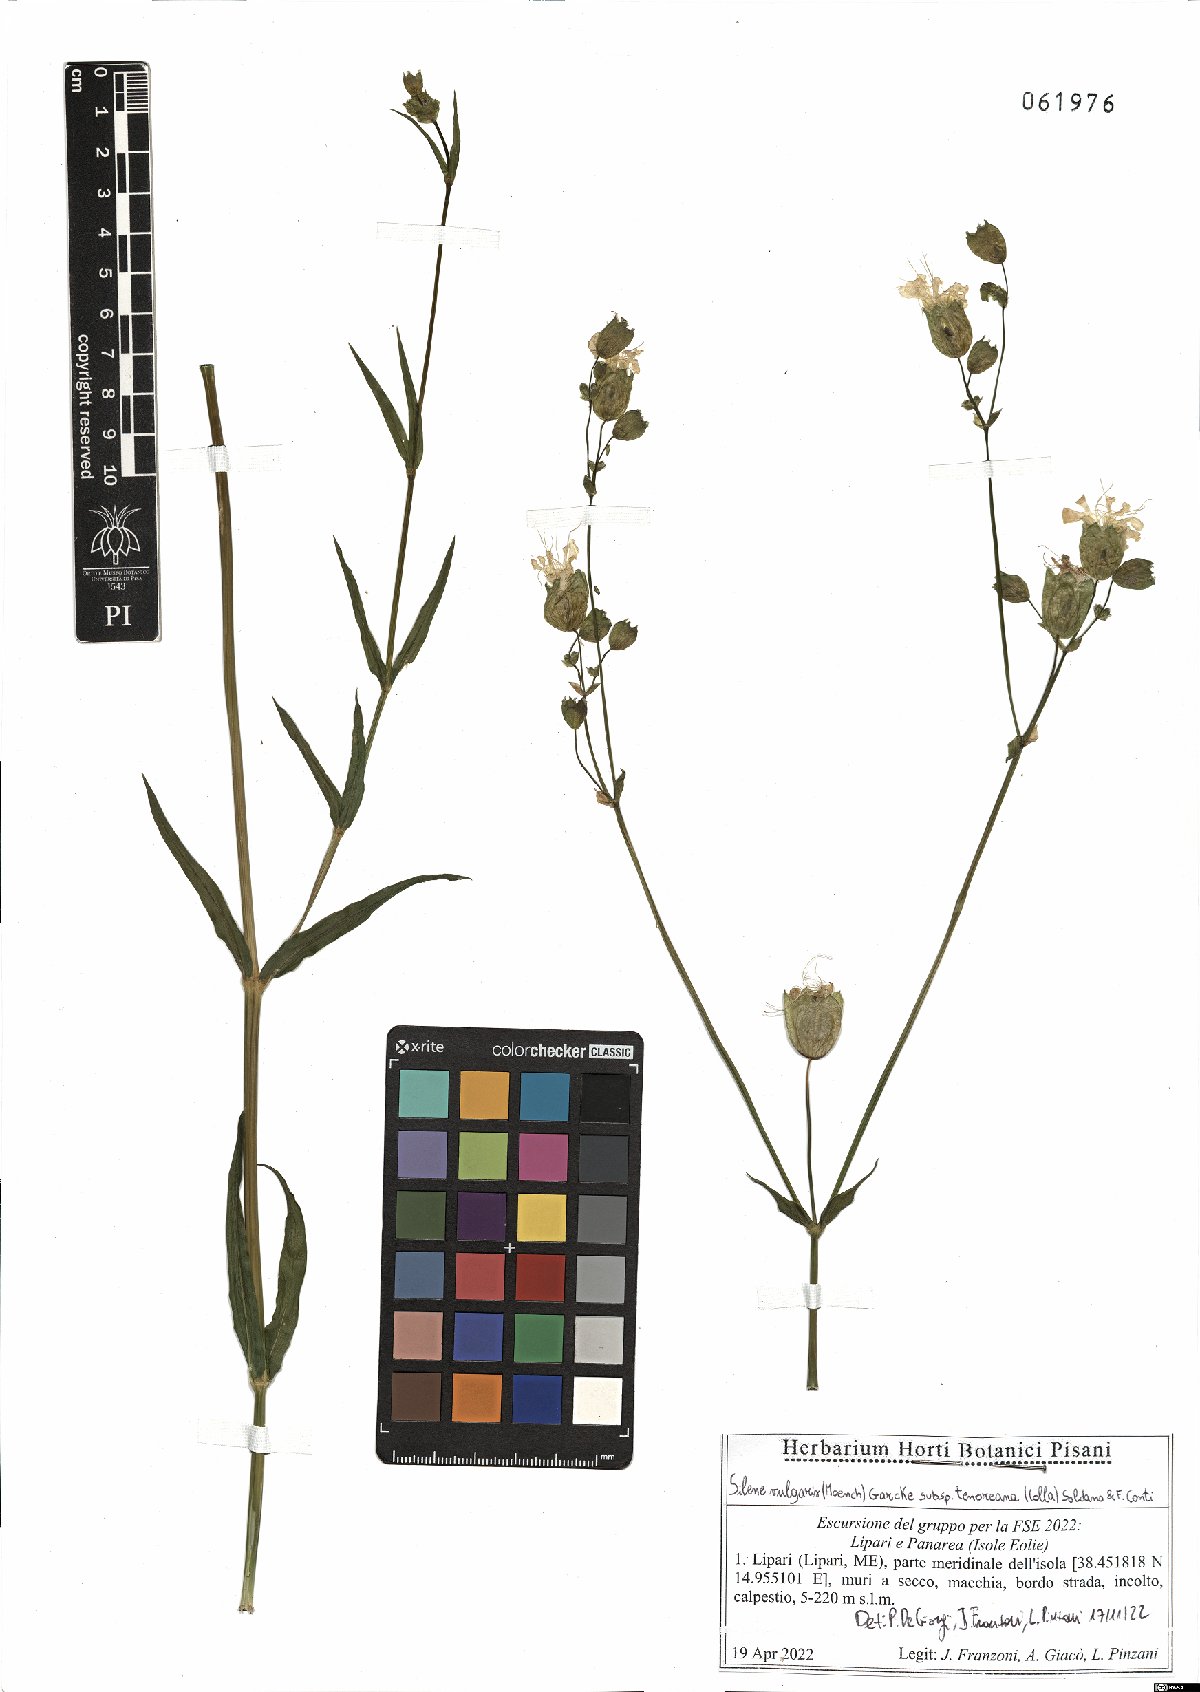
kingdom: Plantae
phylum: Tracheophyta
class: Magnoliopsida
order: Caryophyllales
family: Caryophyllaceae
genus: Silene
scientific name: Silene vulgaris
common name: Bladder campion
